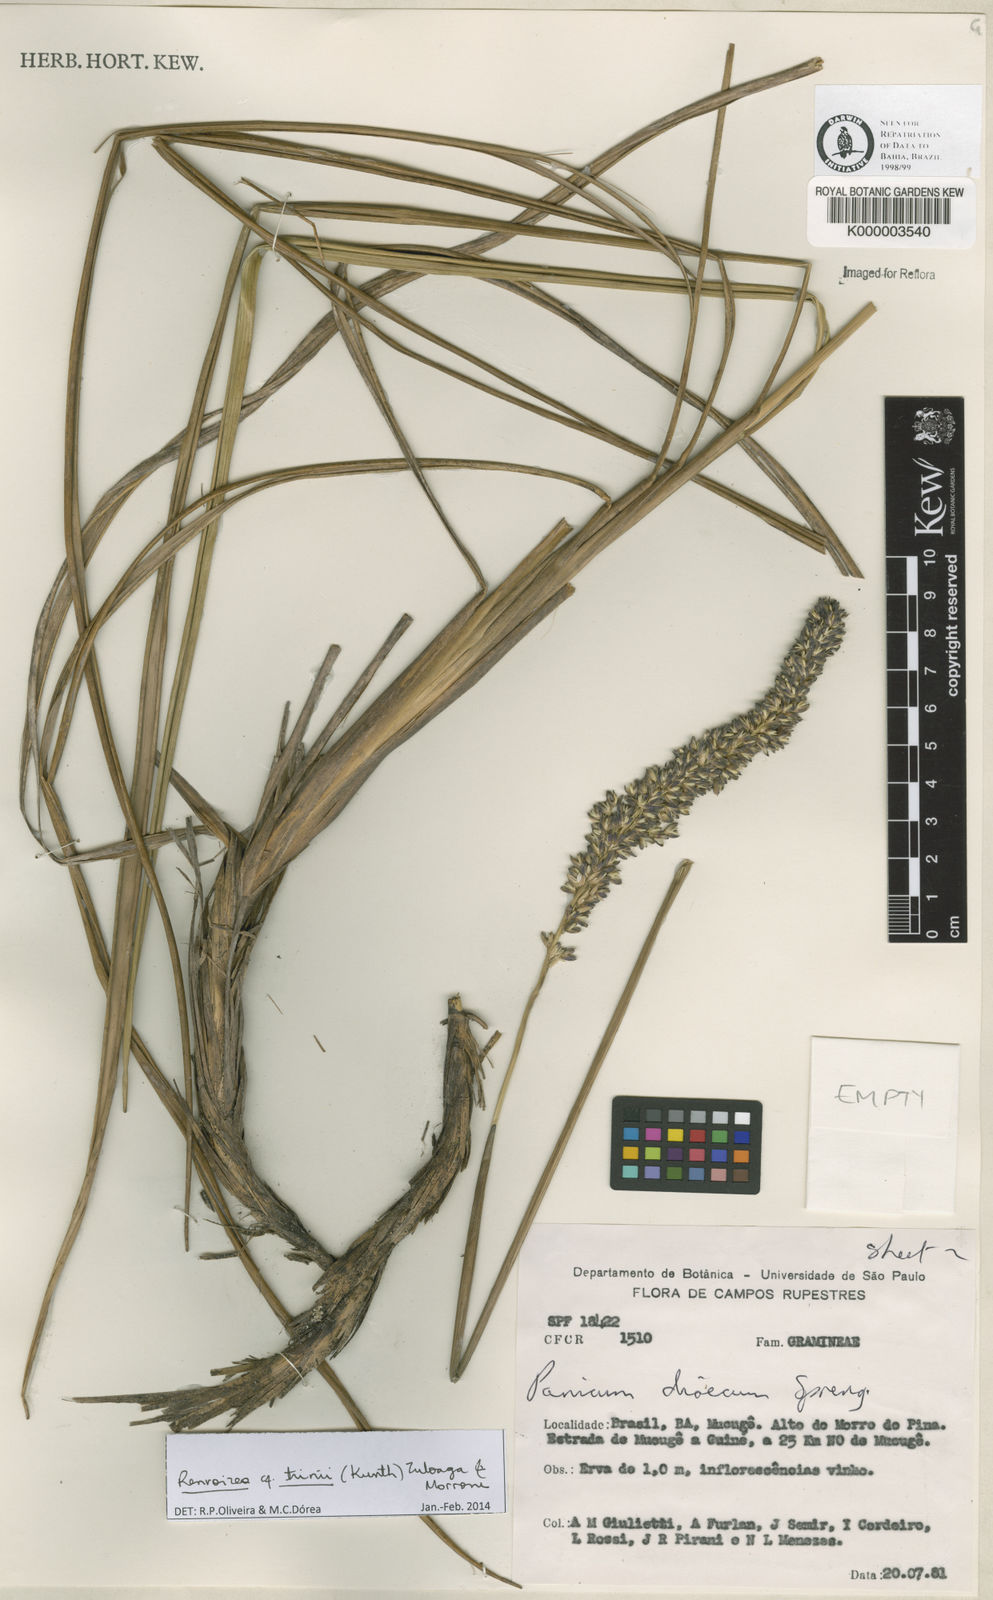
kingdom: Plantae
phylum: Tracheophyta
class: Liliopsida
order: Poales
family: Poaceae
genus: Renvoizea
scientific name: Renvoizea trinii
